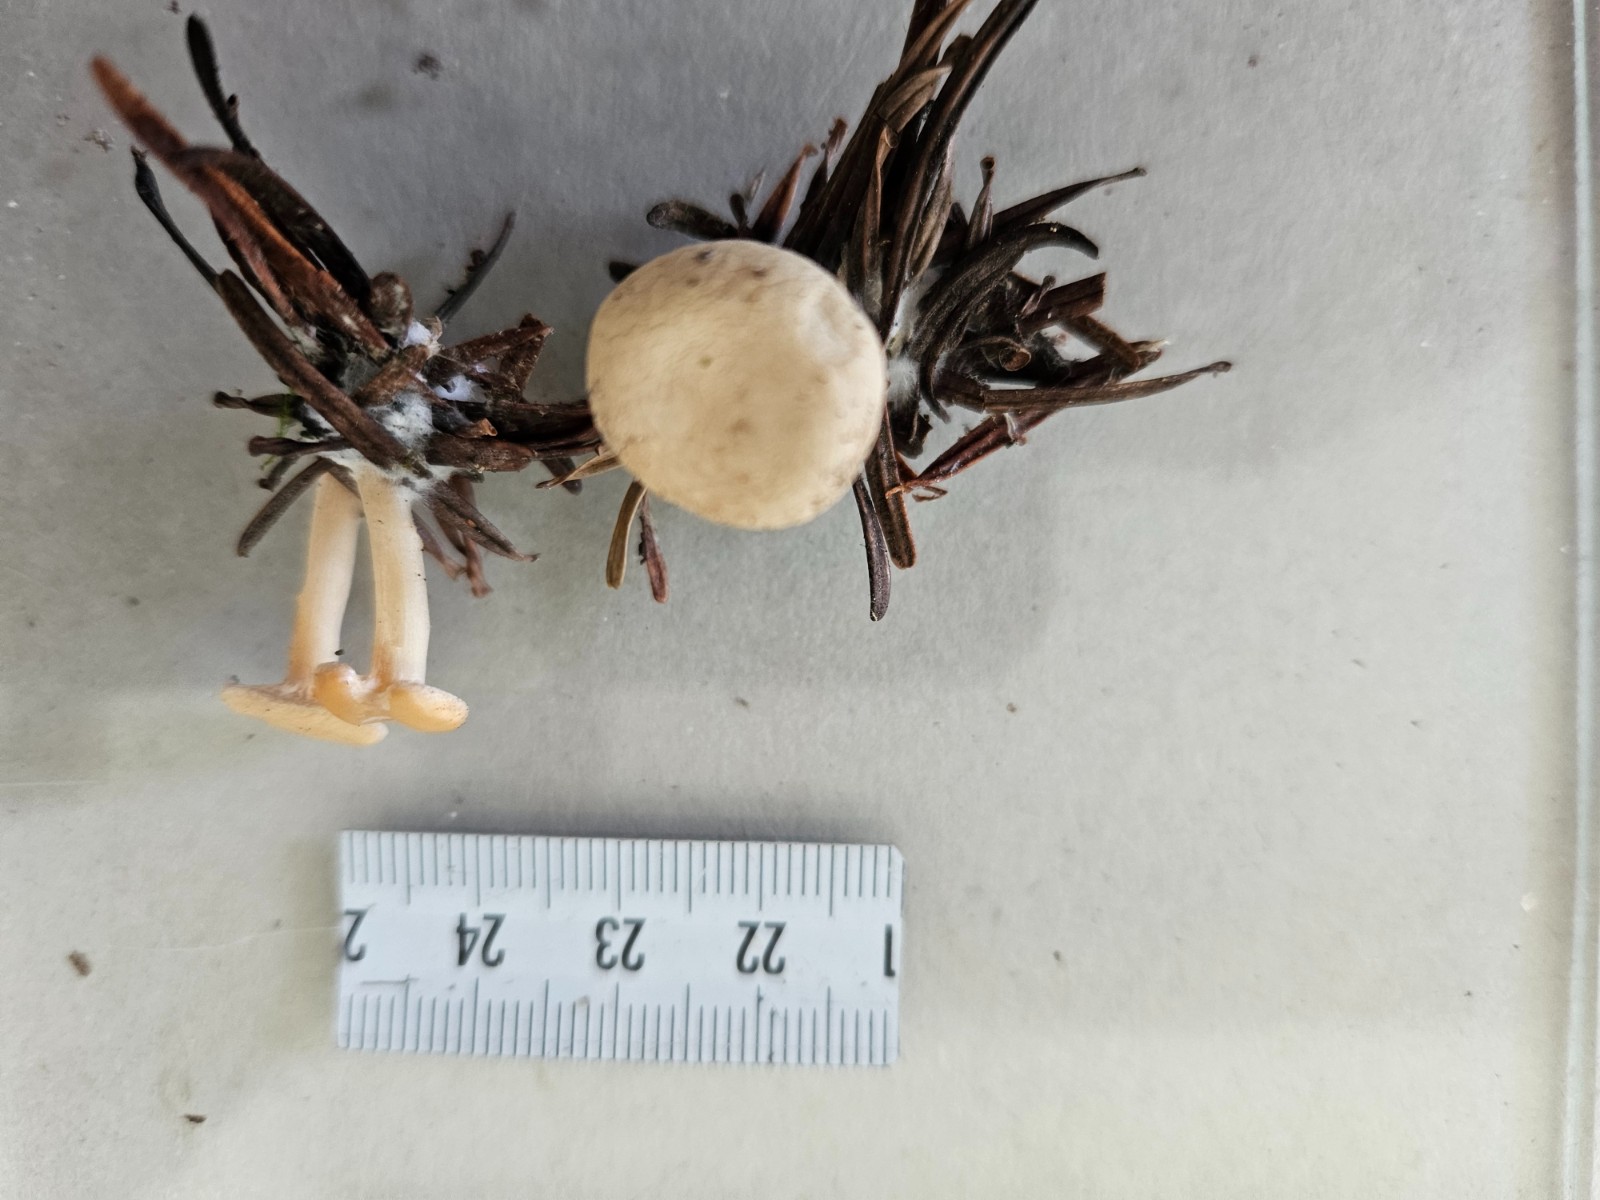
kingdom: Fungi
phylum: Basidiomycota
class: Agaricomycetes
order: Agaricales
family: Tricholomataceae
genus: Clitocybe
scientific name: Clitocybe
